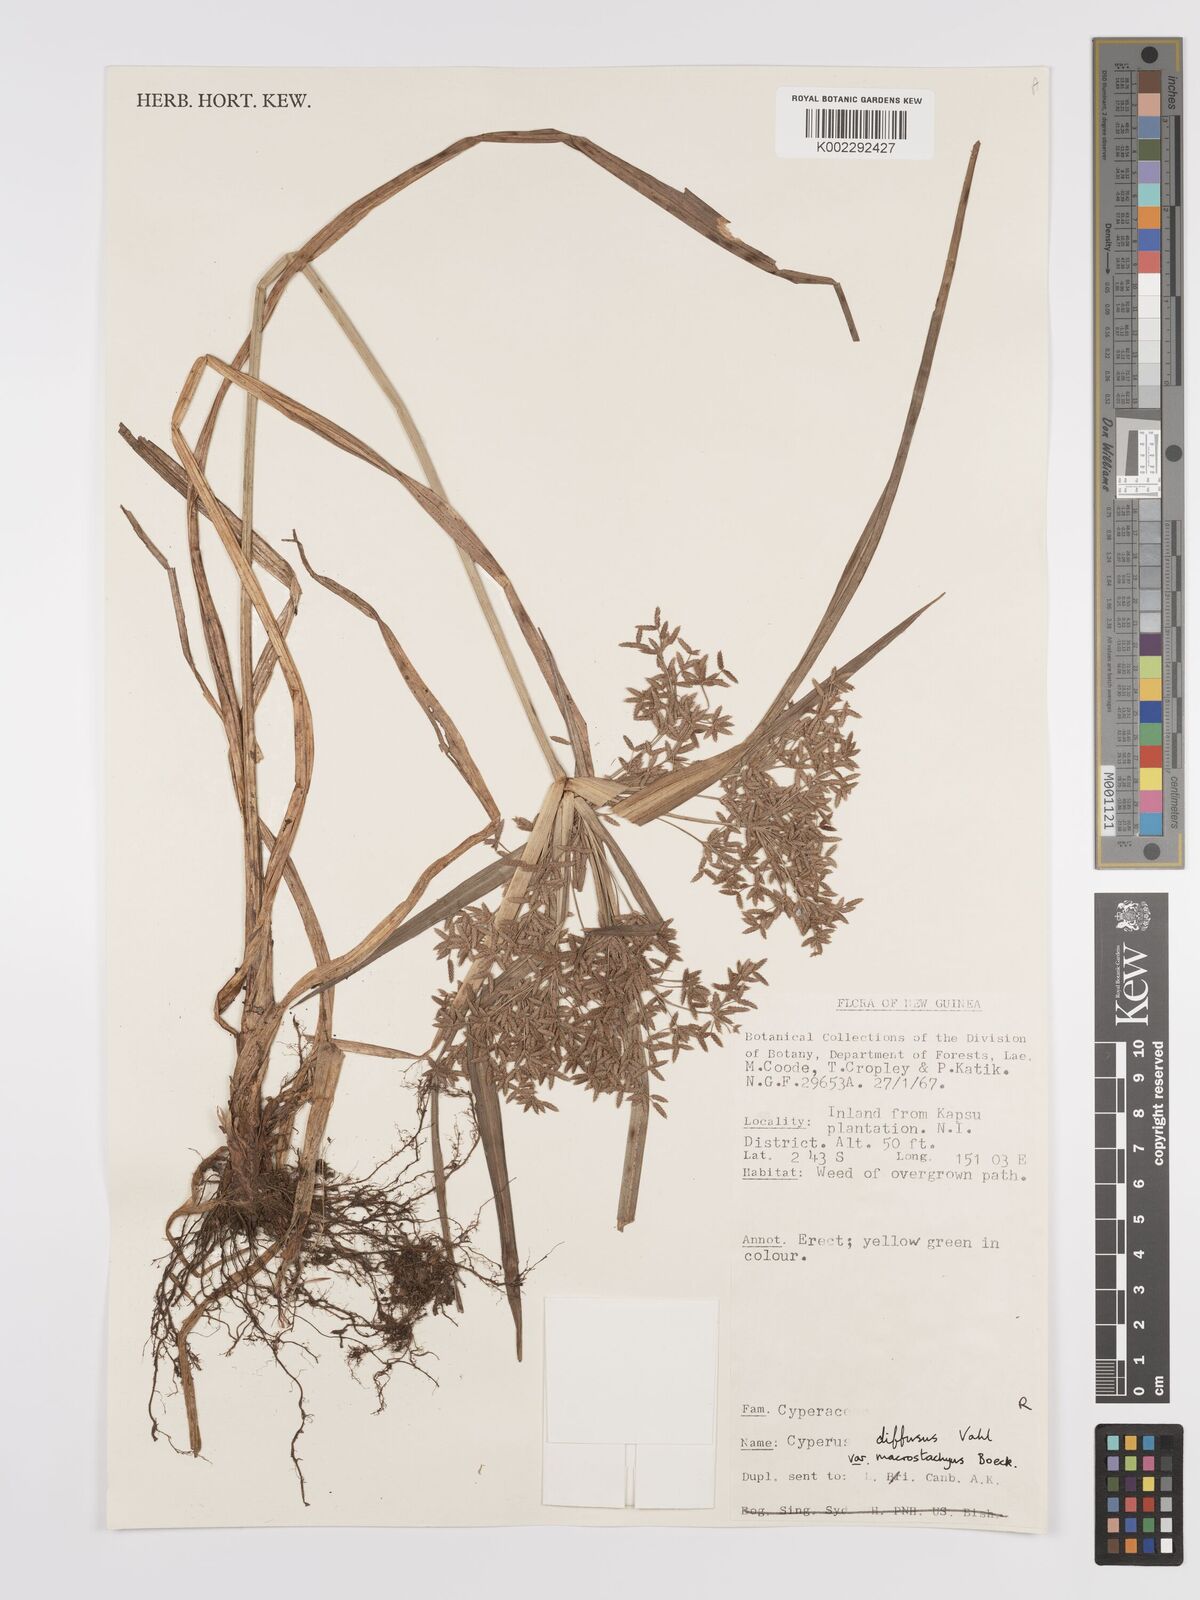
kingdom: Plantae
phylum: Tracheophyta
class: Liliopsida
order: Poales
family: Cyperaceae
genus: Cyperus
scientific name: Cyperus diffusus
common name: Dwarf umbrella grass
